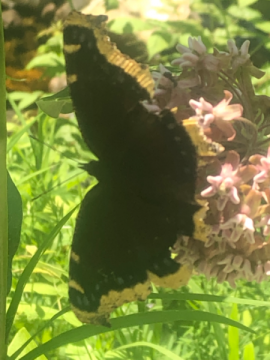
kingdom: Animalia
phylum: Arthropoda
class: Insecta
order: Lepidoptera
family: Nymphalidae
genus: Nymphalis
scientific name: Nymphalis antiopa
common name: Mourning Cloak
